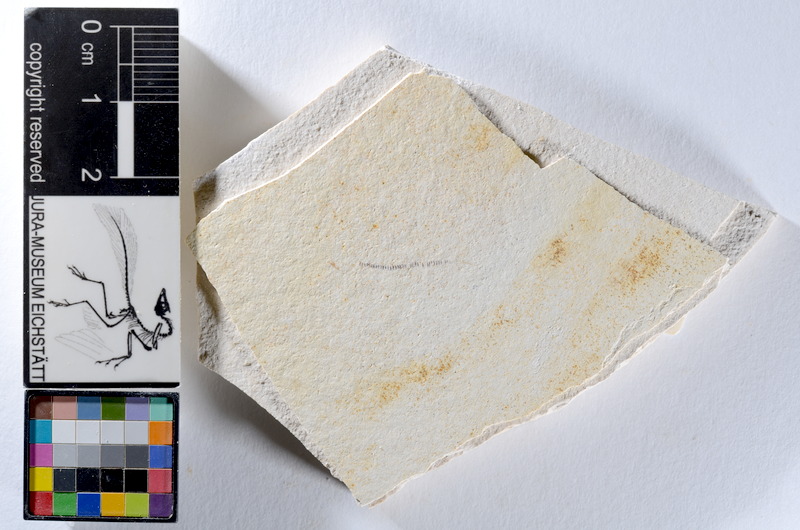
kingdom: Animalia
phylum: Chordata
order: Salmoniformes
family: Orthogonikleithridae
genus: Orthogonikleithrus
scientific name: Orthogonikleithrus hoelli
